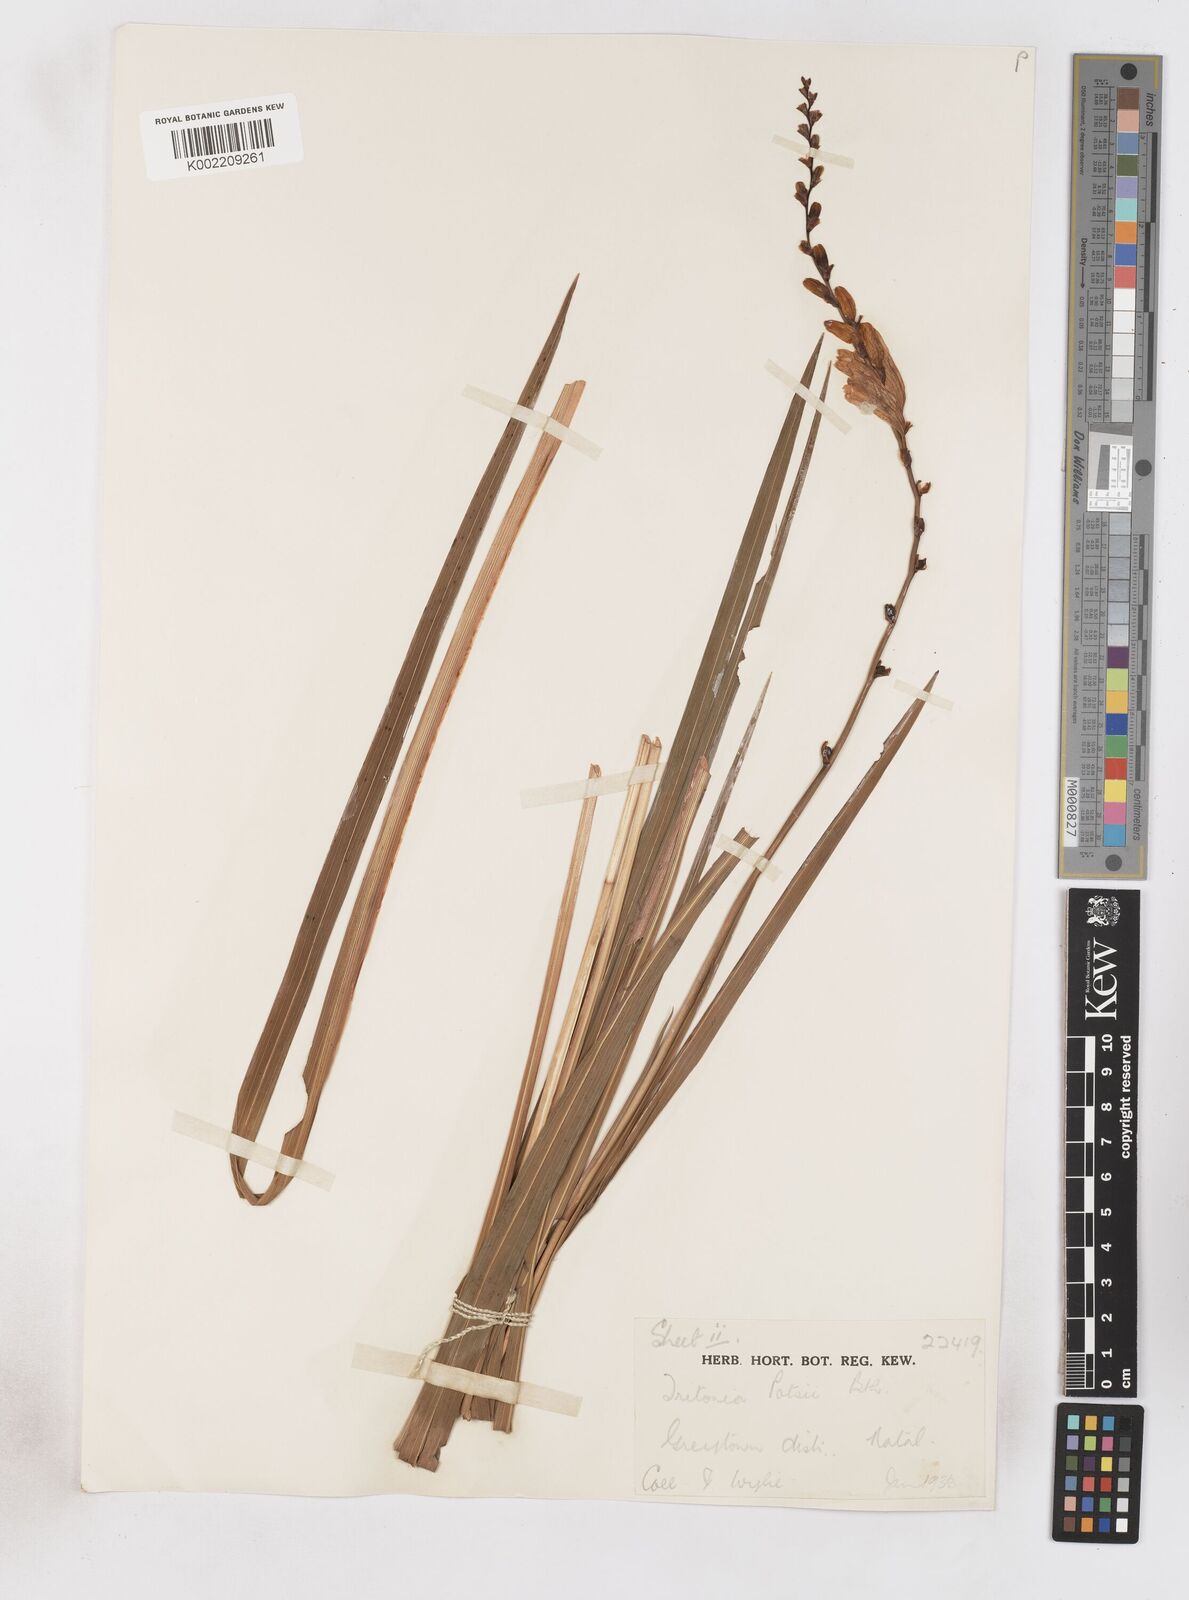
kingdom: Plantae
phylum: Tracheophyta
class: Liliopsida
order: Asparagales
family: Iridaceae
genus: Crocosmia
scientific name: Crocosmia pottsii
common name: Pott's montbretia
